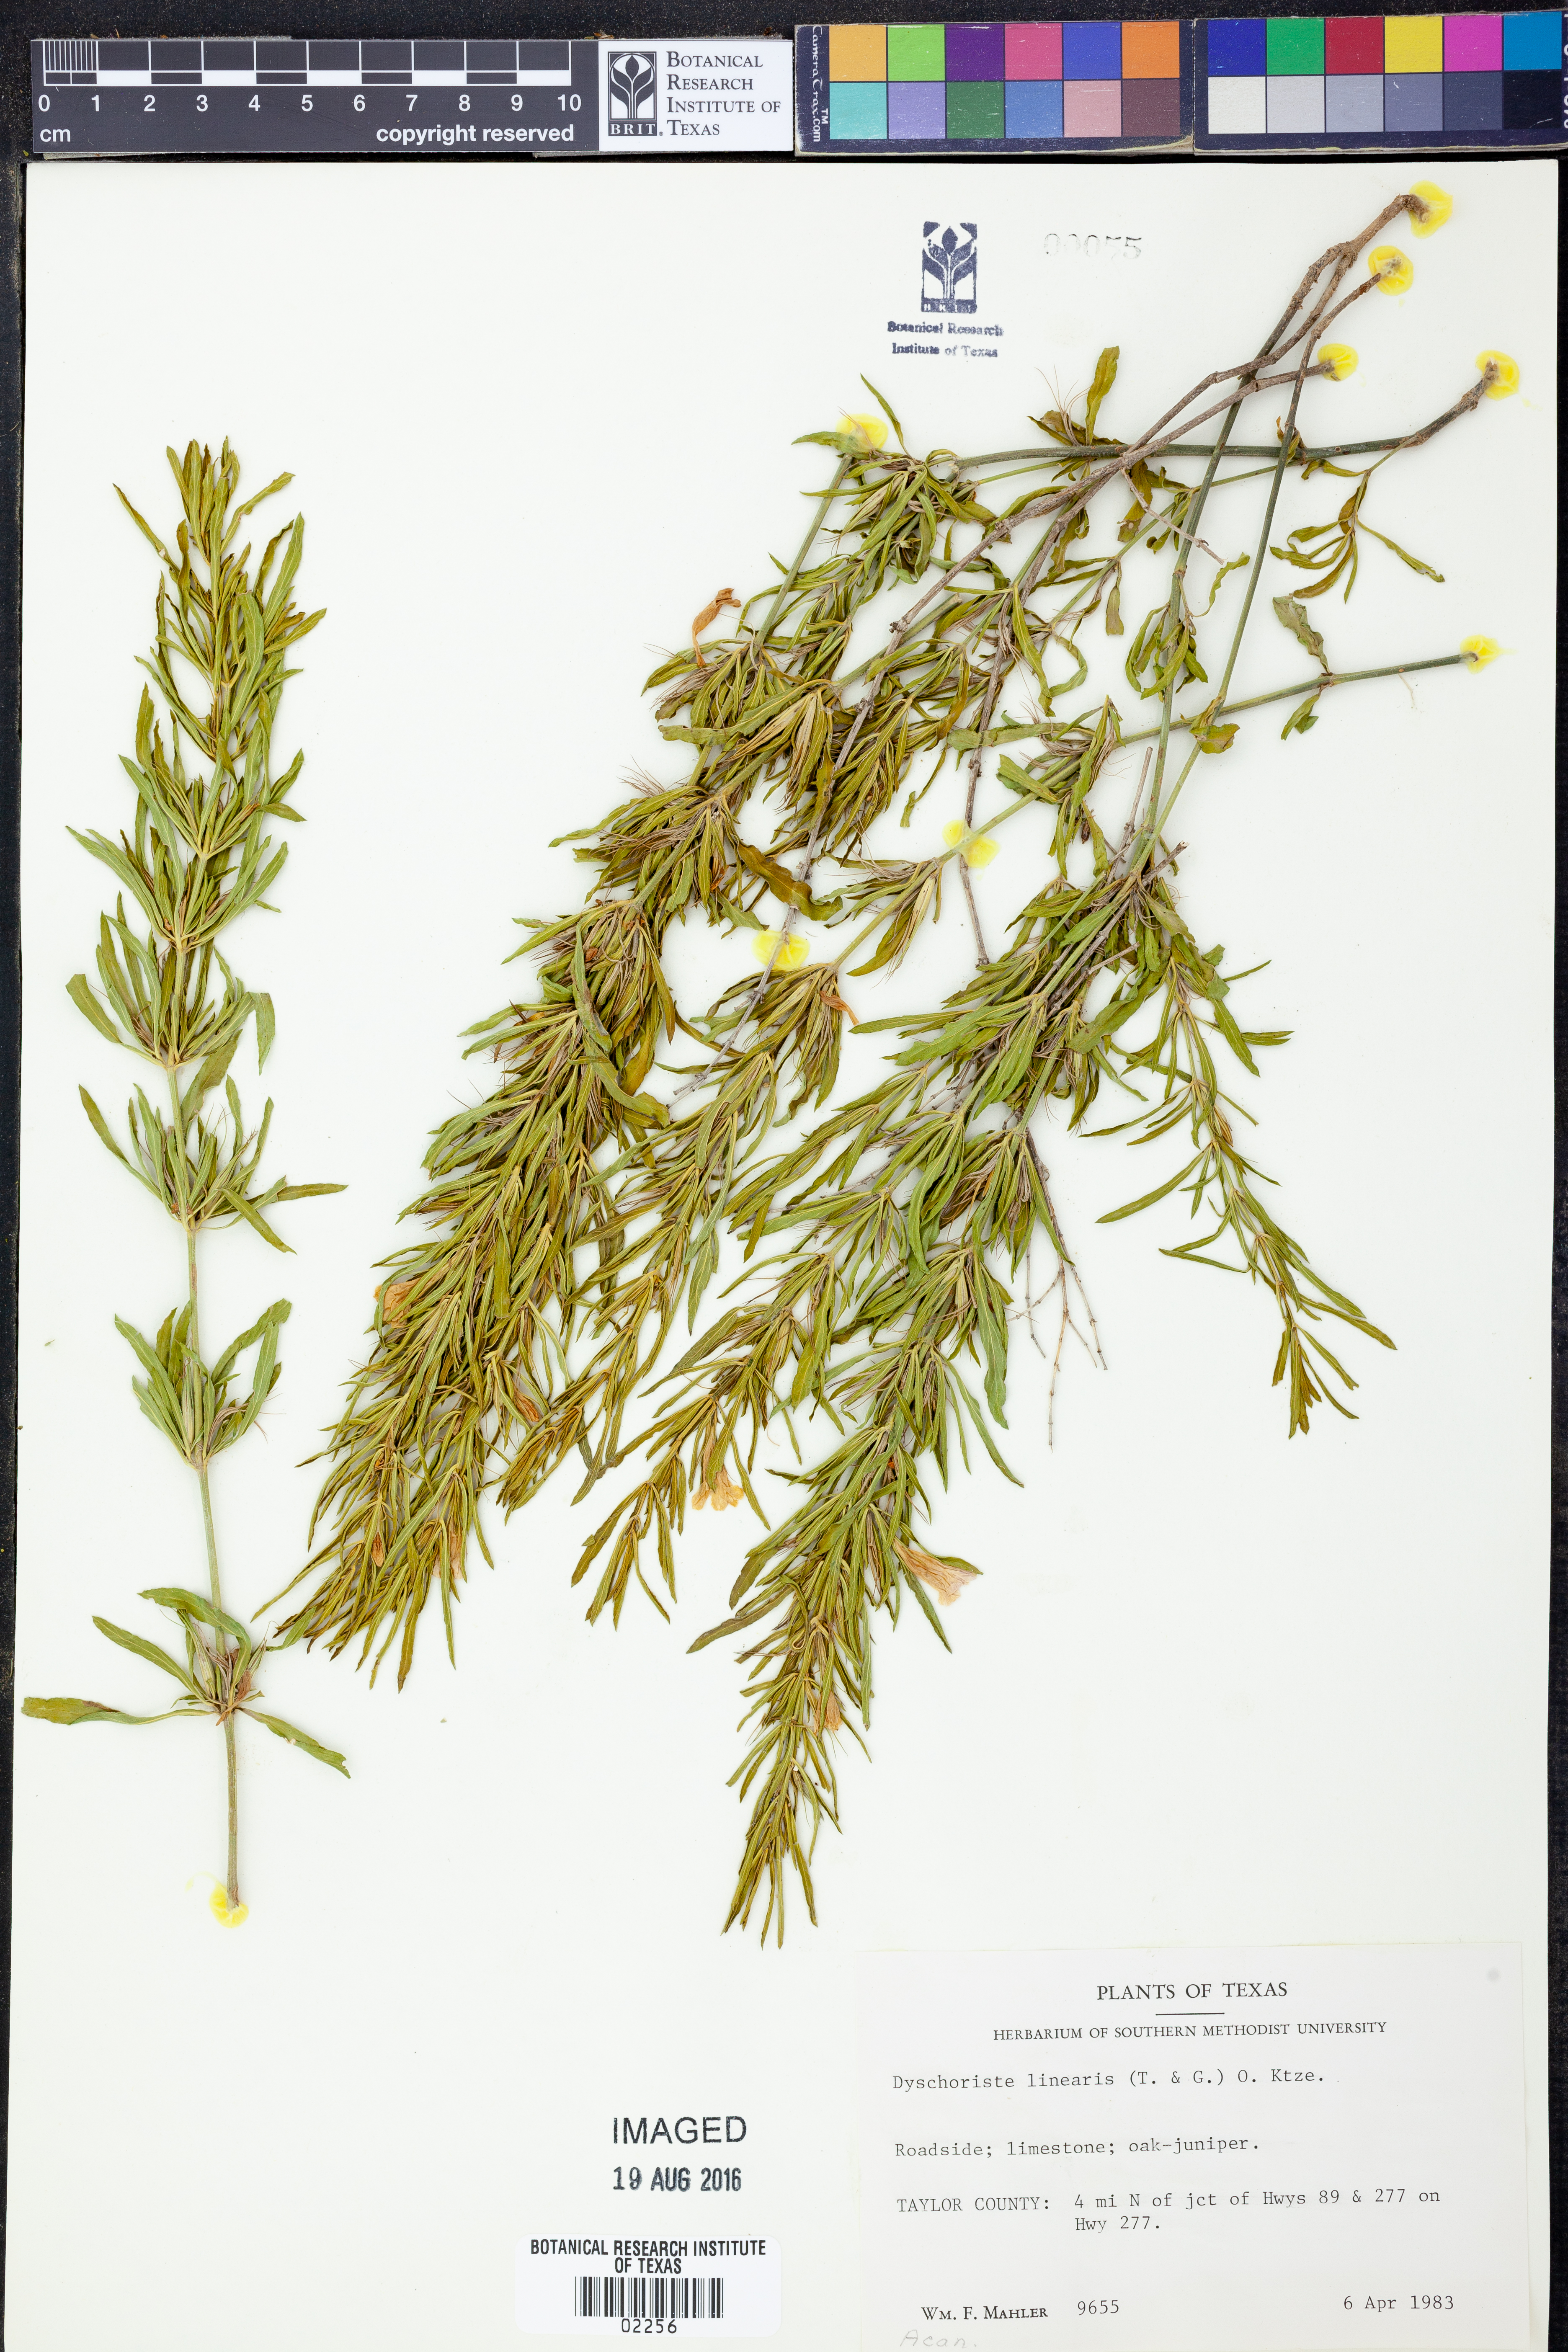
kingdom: Plantae
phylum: Tracheophyta
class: Magnoliopsida
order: Lamiales
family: Acanthaceae
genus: Dyschoriste
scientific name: Dyschoriste linearis
